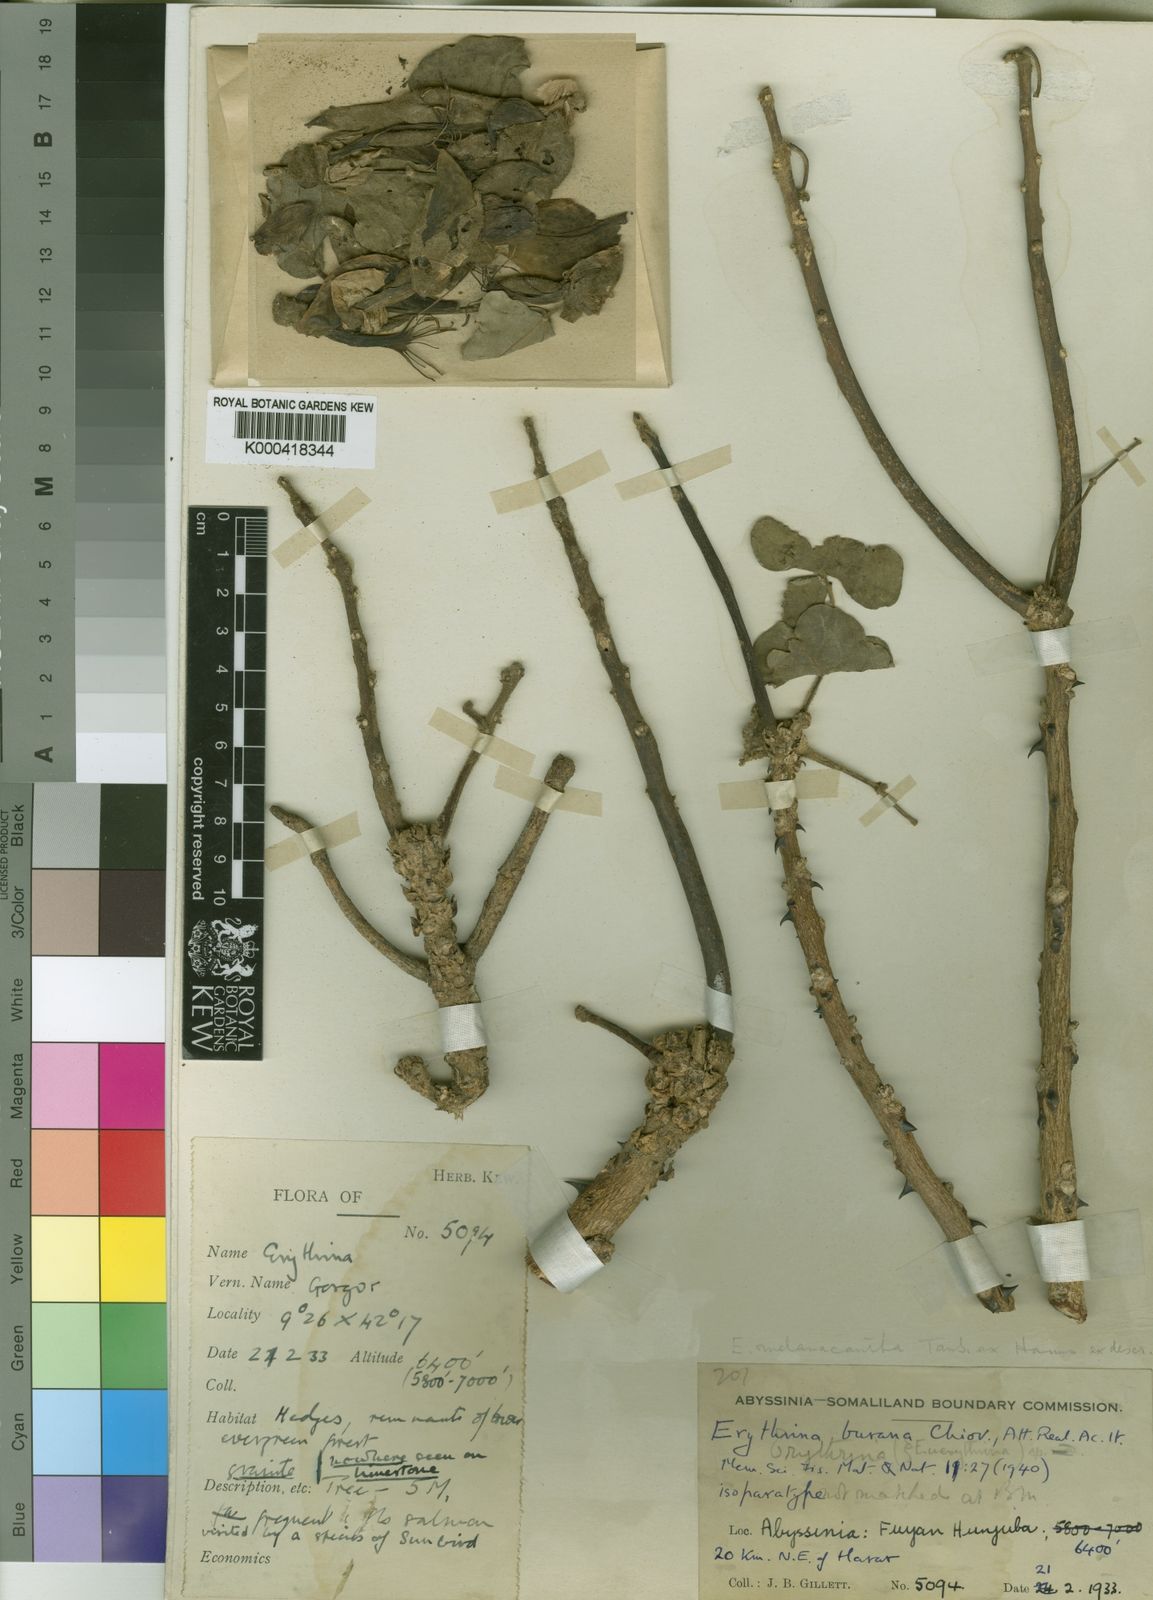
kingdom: Plantae
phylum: Tracheophyta
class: Magnoliopsida
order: Fabales
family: Fabaceae
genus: Erythrina
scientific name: Erythrina burana
